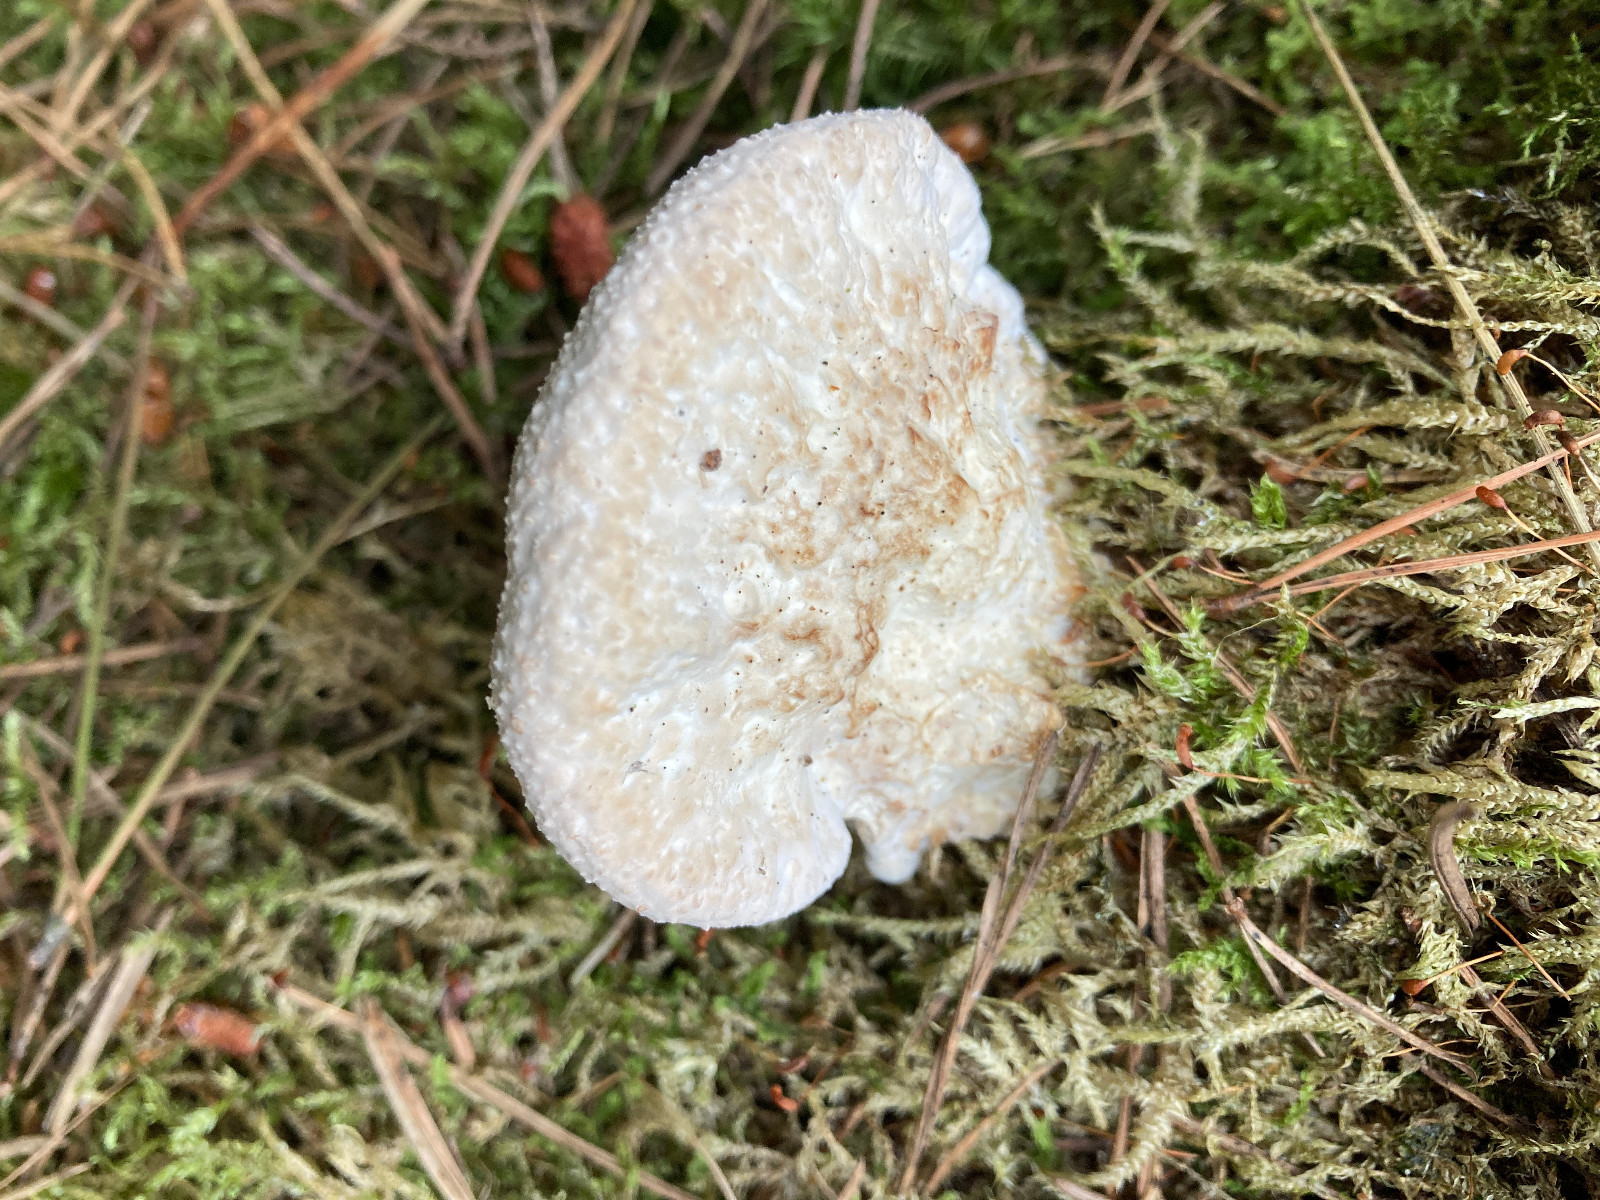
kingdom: Fungi
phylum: Basidiomycota
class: Agaricomycetes
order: Polyporales
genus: Calcipostia
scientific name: Calcipostia guttulata
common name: dråbe-kødporesvamp
